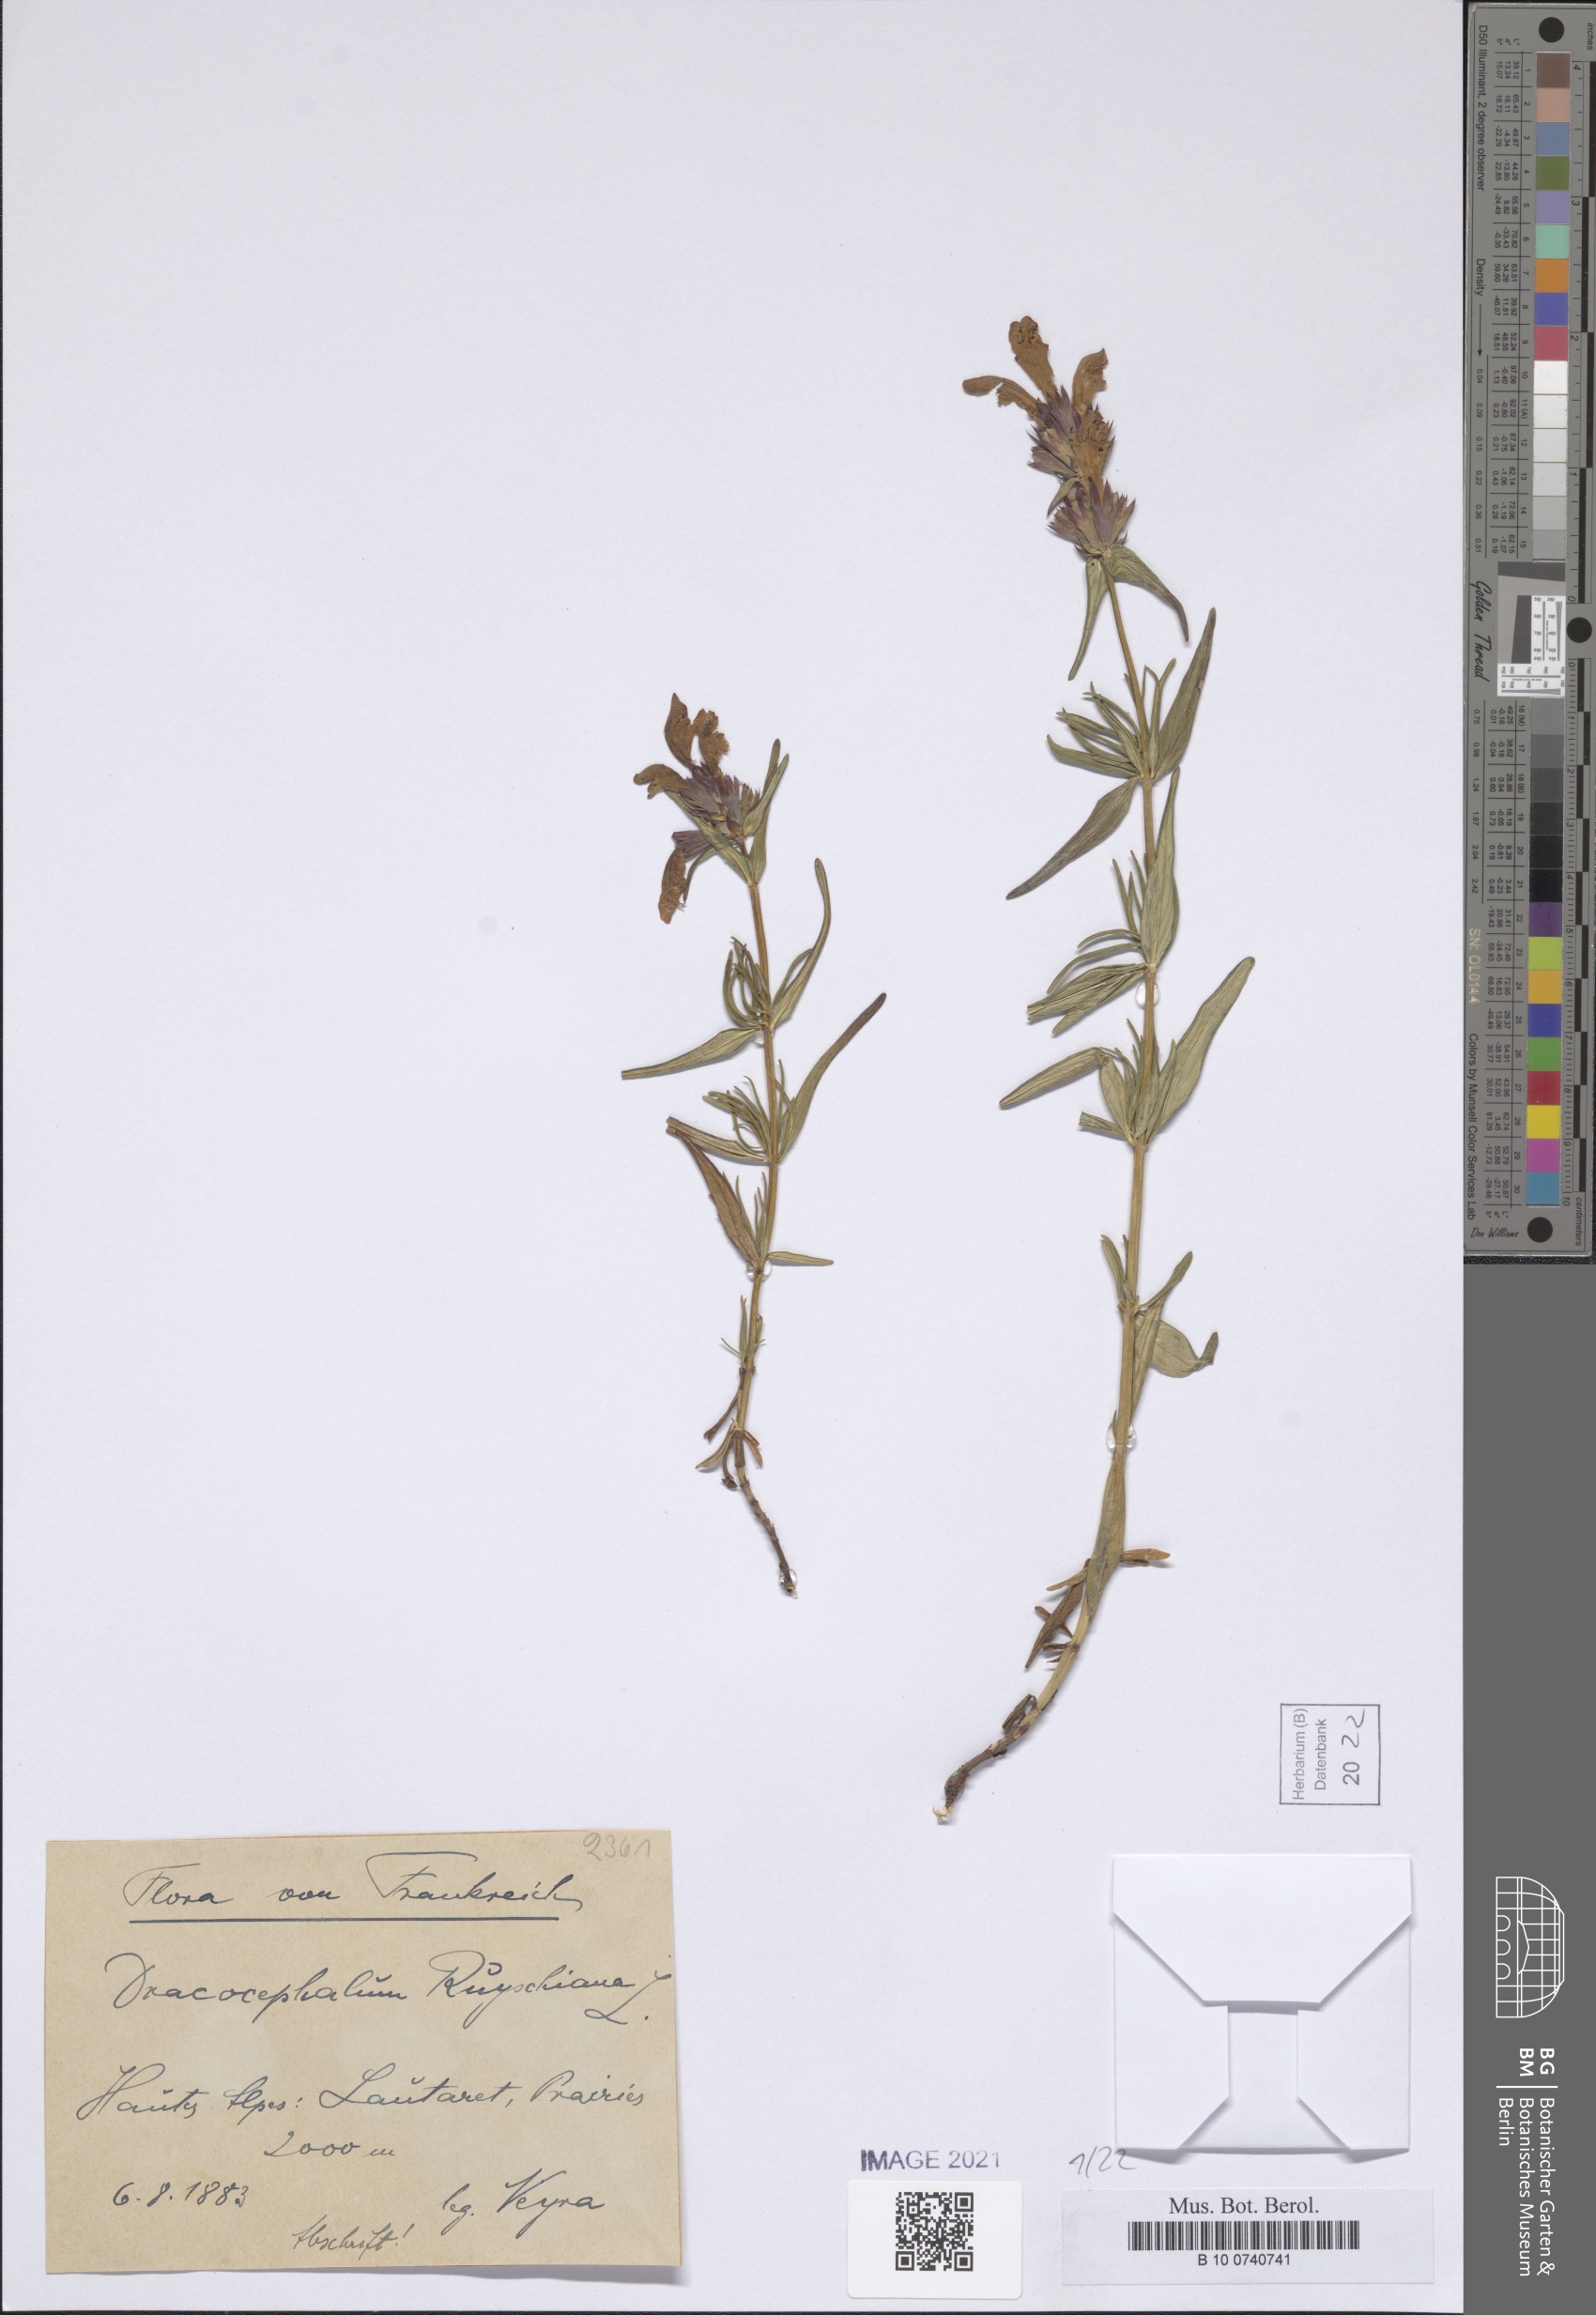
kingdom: Plantae
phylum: Tracheophyta
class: Magnoliopsida
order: Lamiales
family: Lamiaceae
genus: Dracocephalum
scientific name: Dracocephalum ruyschiana
